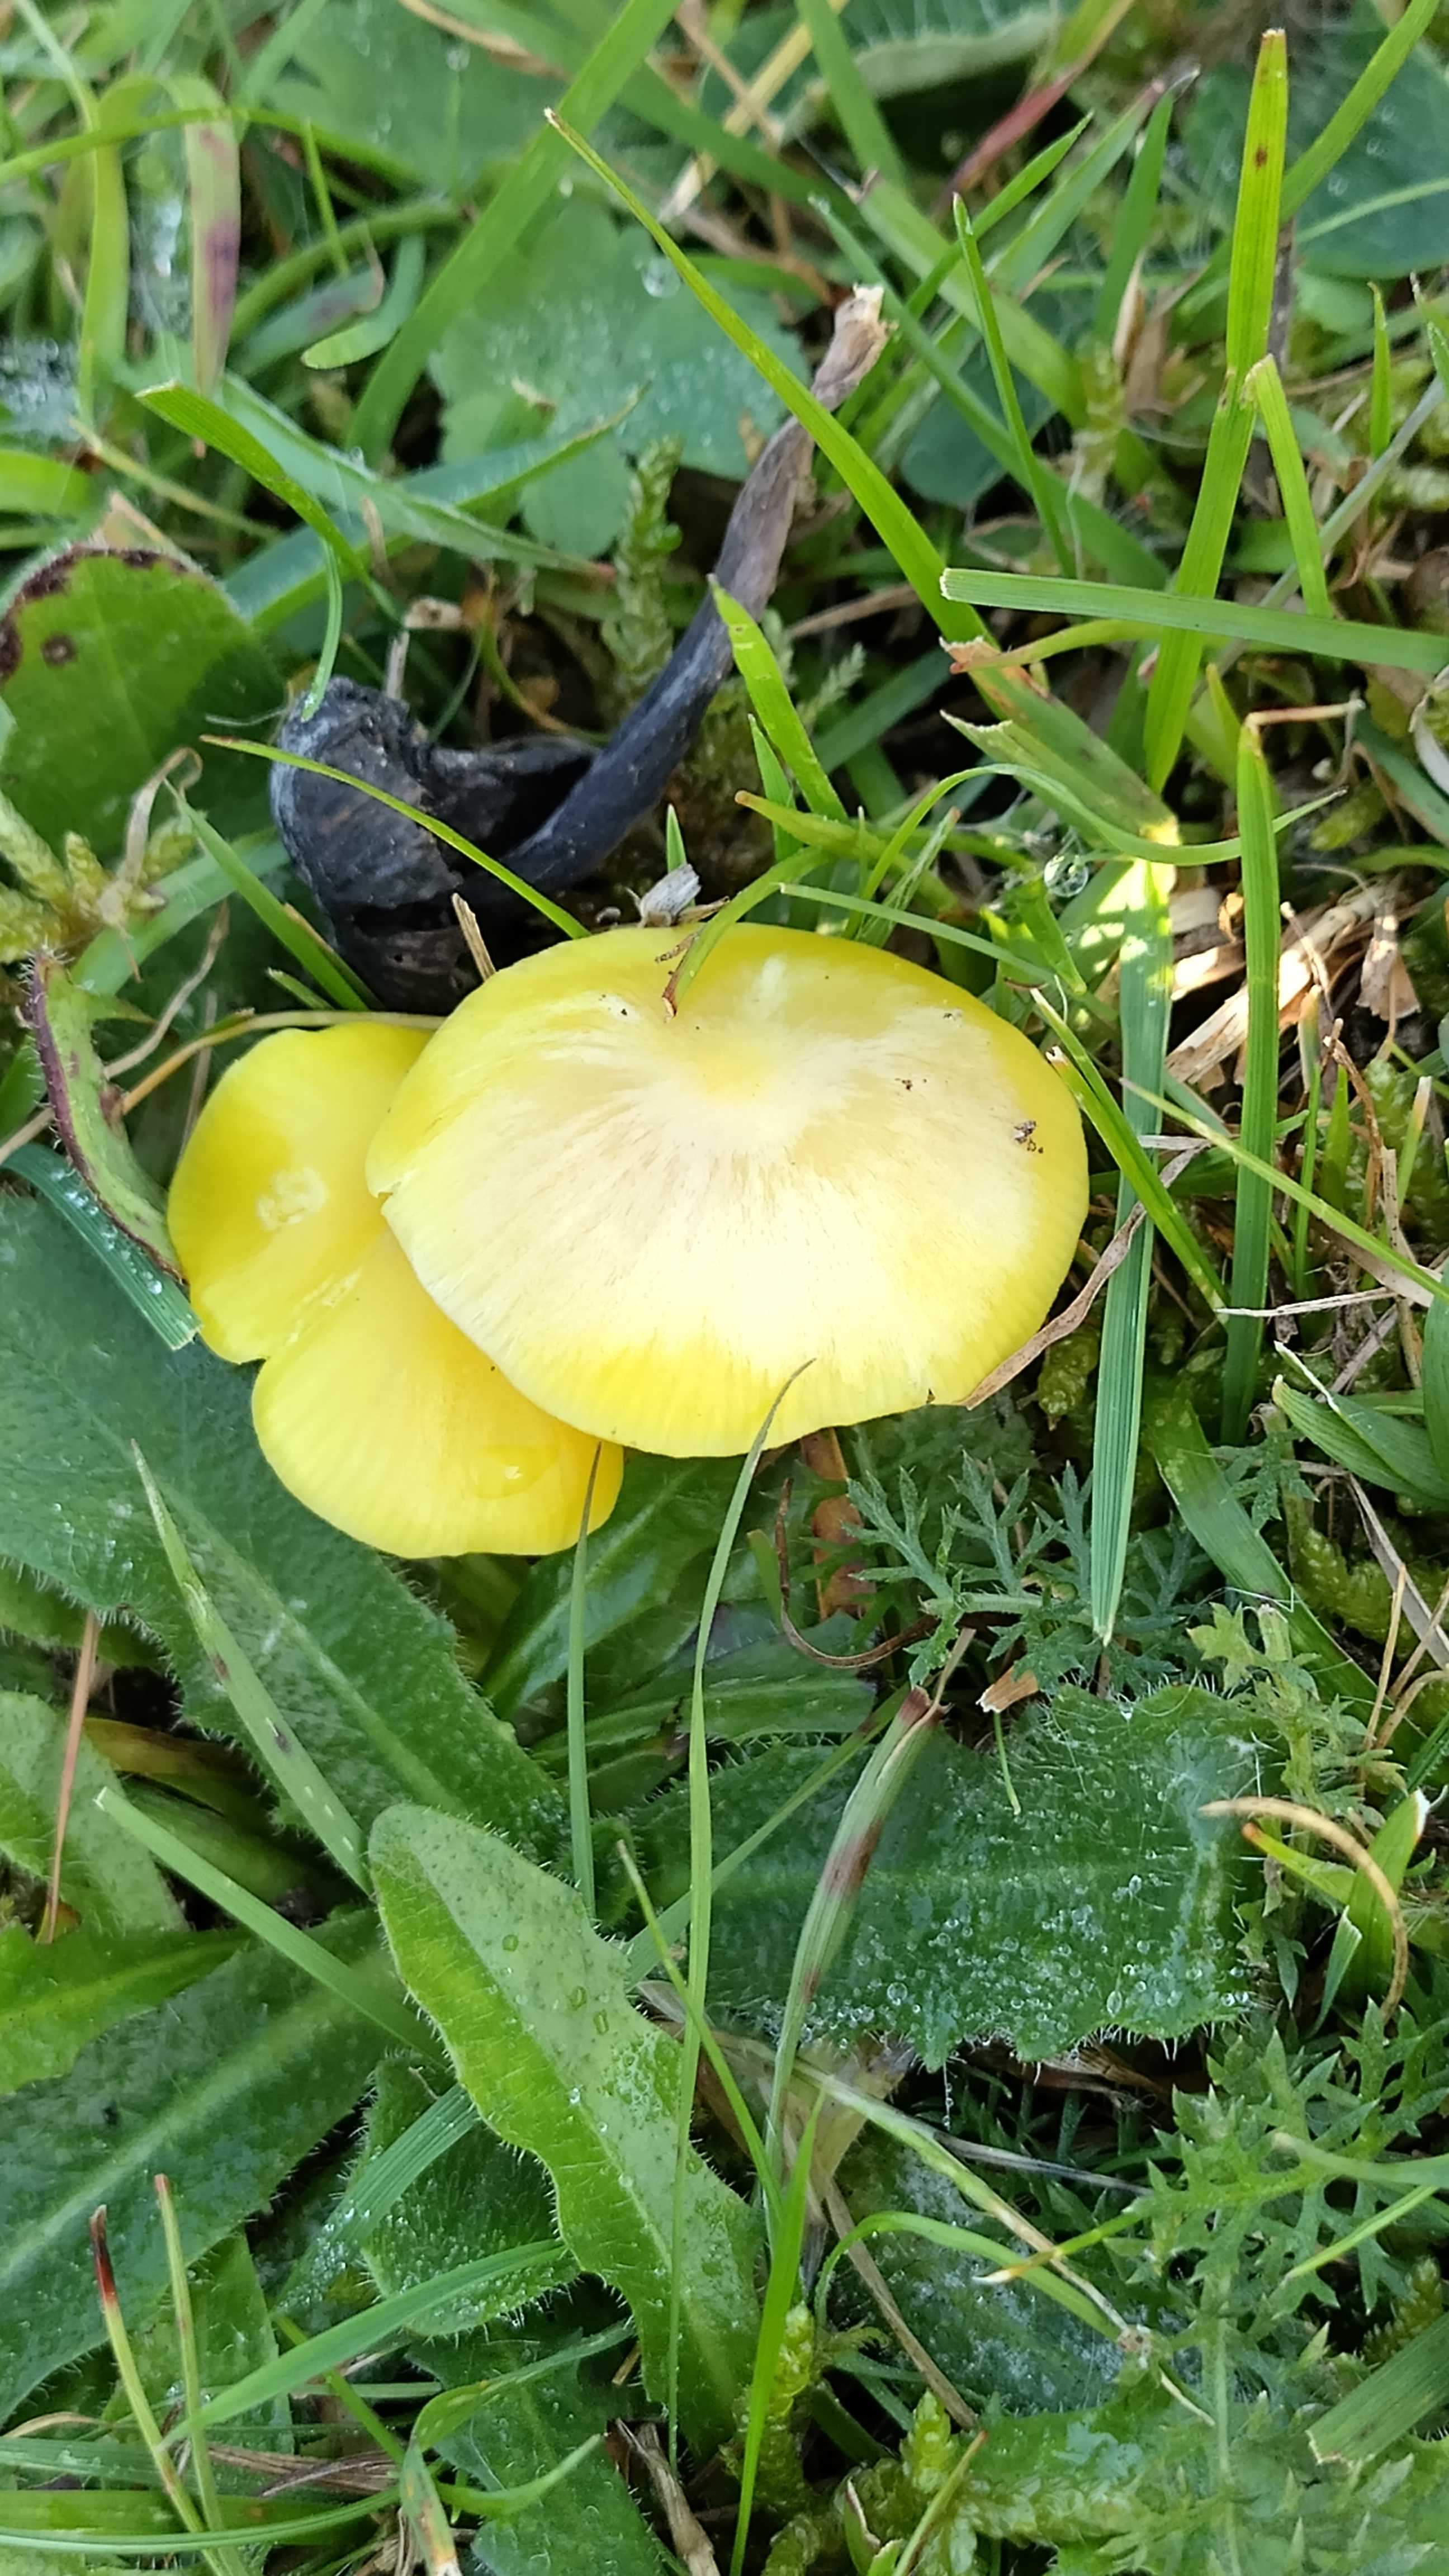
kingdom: Fungi
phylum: Basidiomycota
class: Agaricomycetes
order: Agaricales
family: Hygrophoraceae
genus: Hygrocybe
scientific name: Hygrocybe chlorophana
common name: gul vokshat
